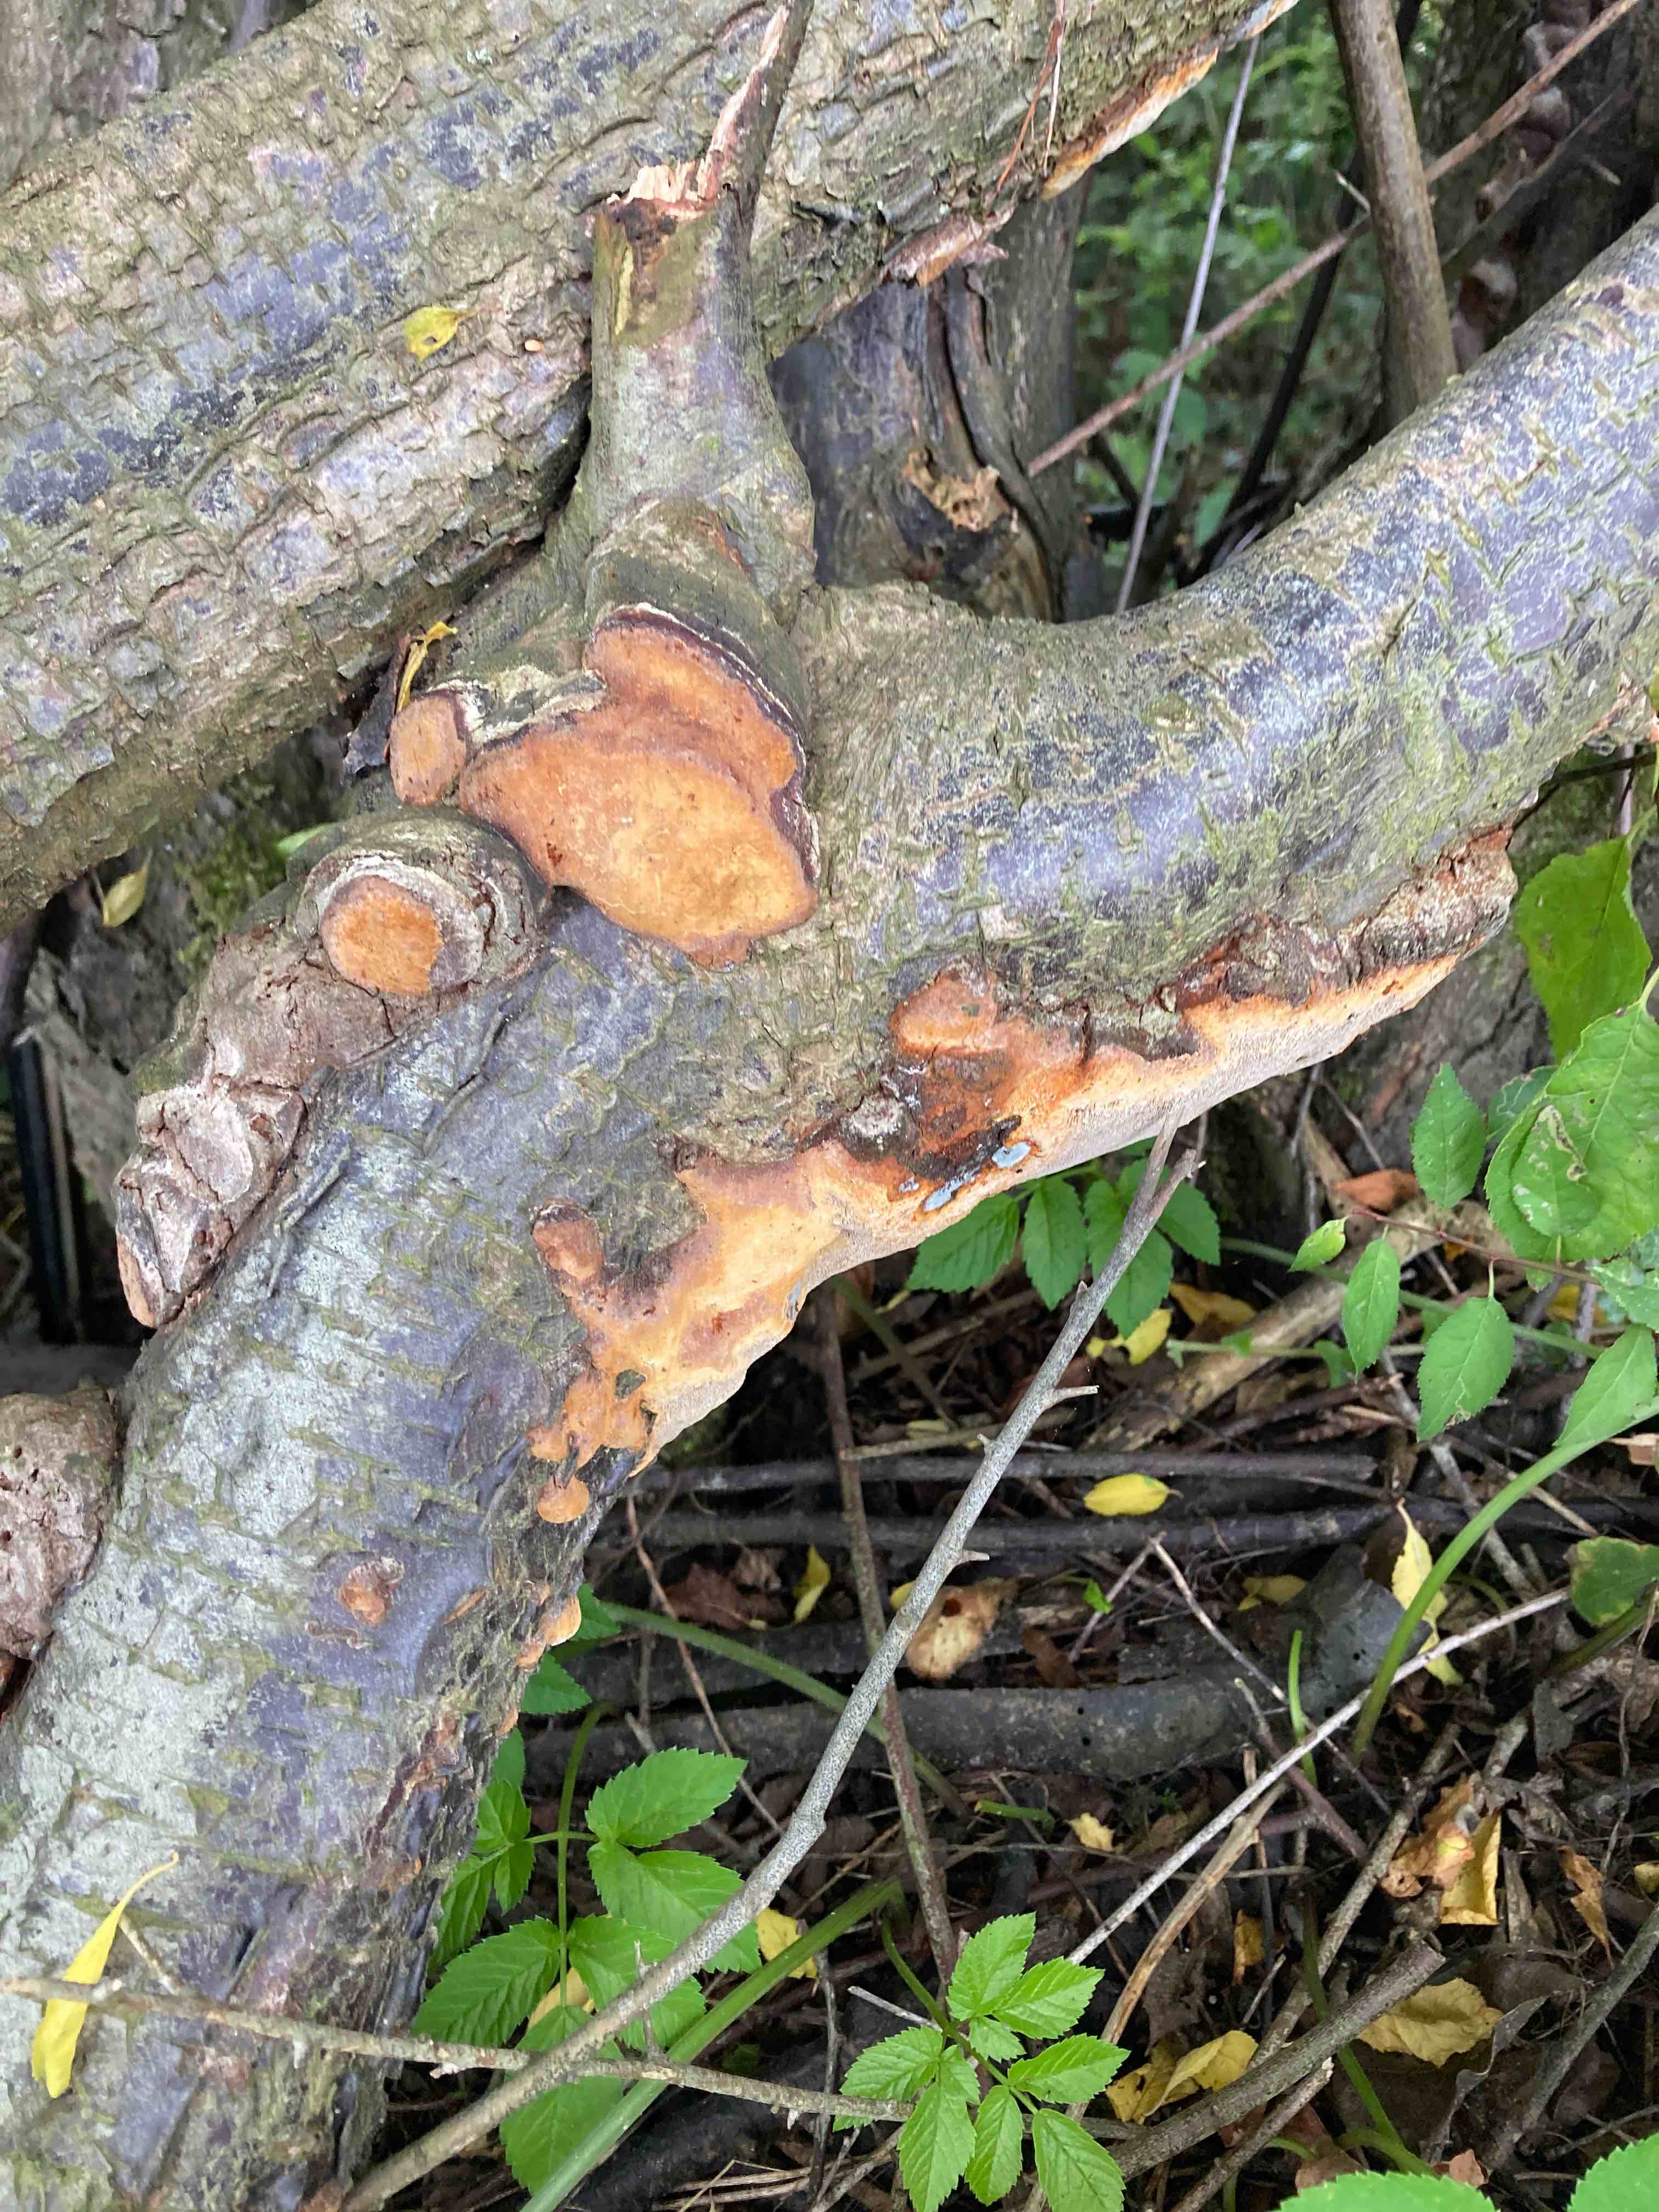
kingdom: Fungi
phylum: Basidiomycota
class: Agaricomycetes
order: Hymenochaetales
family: Hymenochaetaceae
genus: Phellinus
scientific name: Phellinus pomaceus
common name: blomme-ildporesvamp
